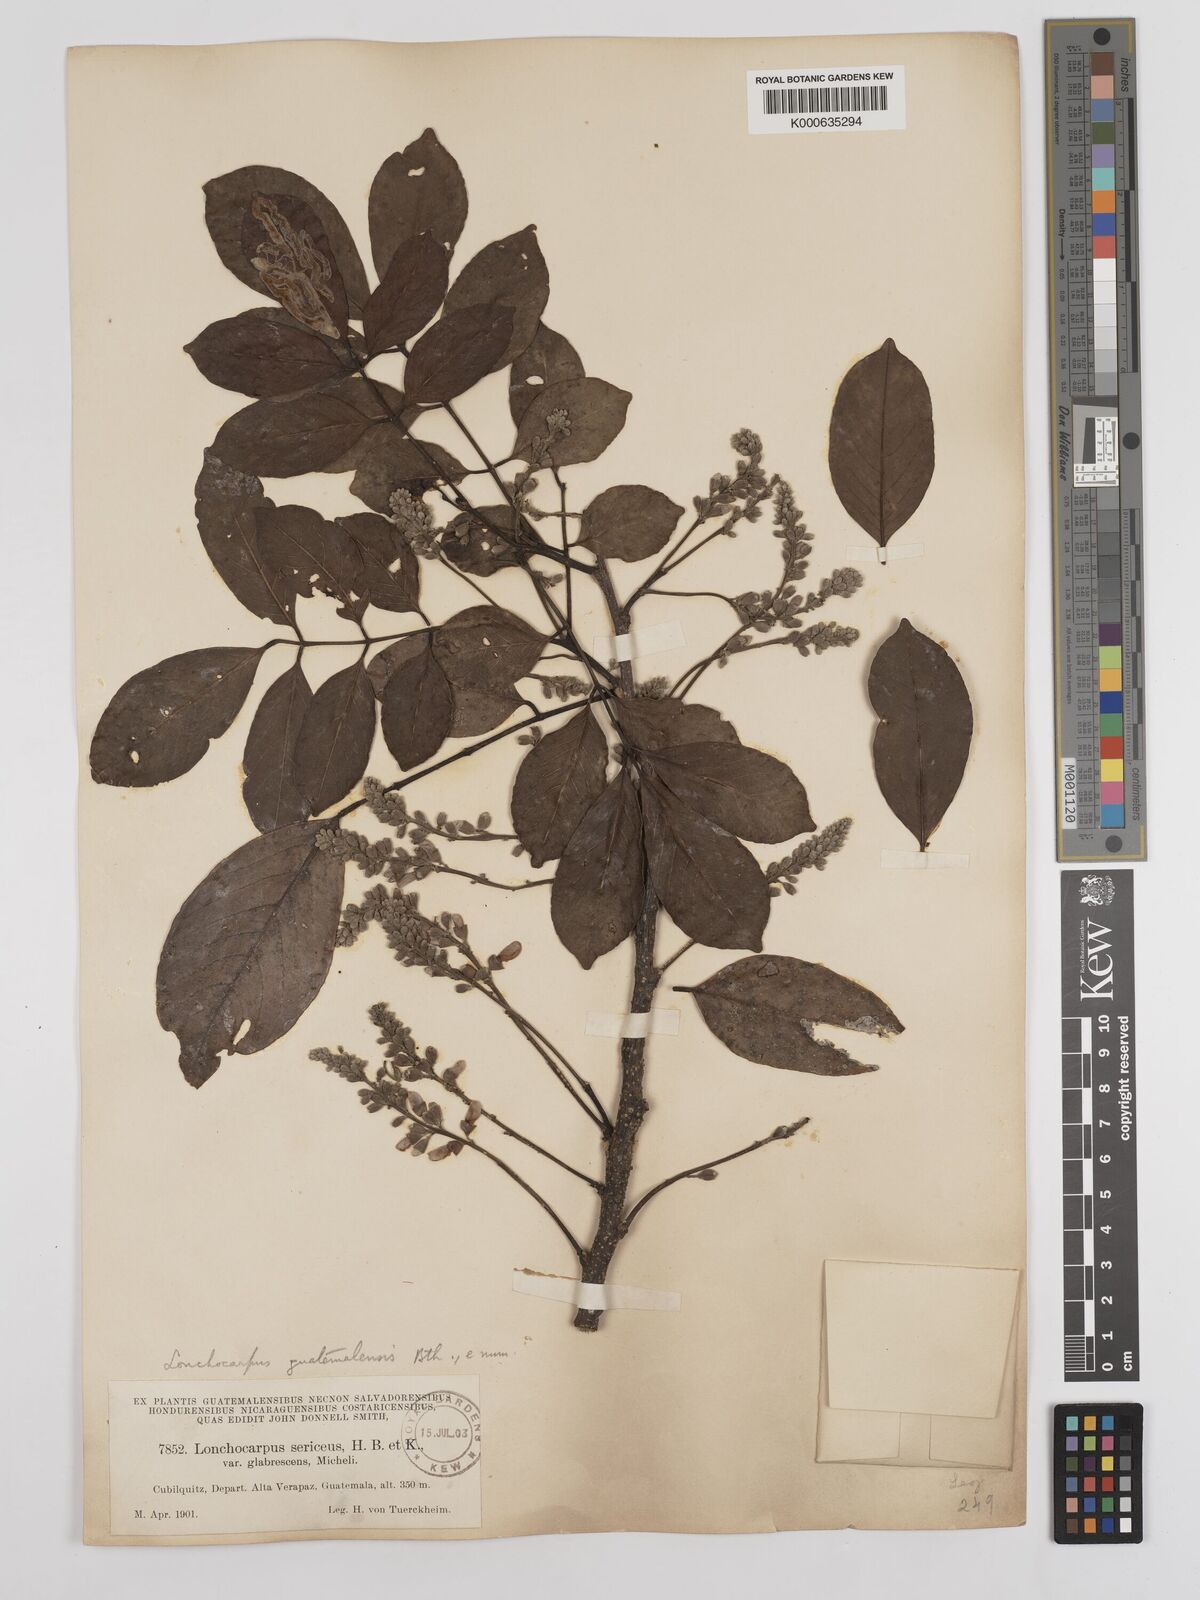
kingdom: Plantae
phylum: Tracheophyta
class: Magnoliopsida
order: Fabales
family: Fabaceae
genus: Lonchocarpus
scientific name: Lonchocarpus guatemalensis
